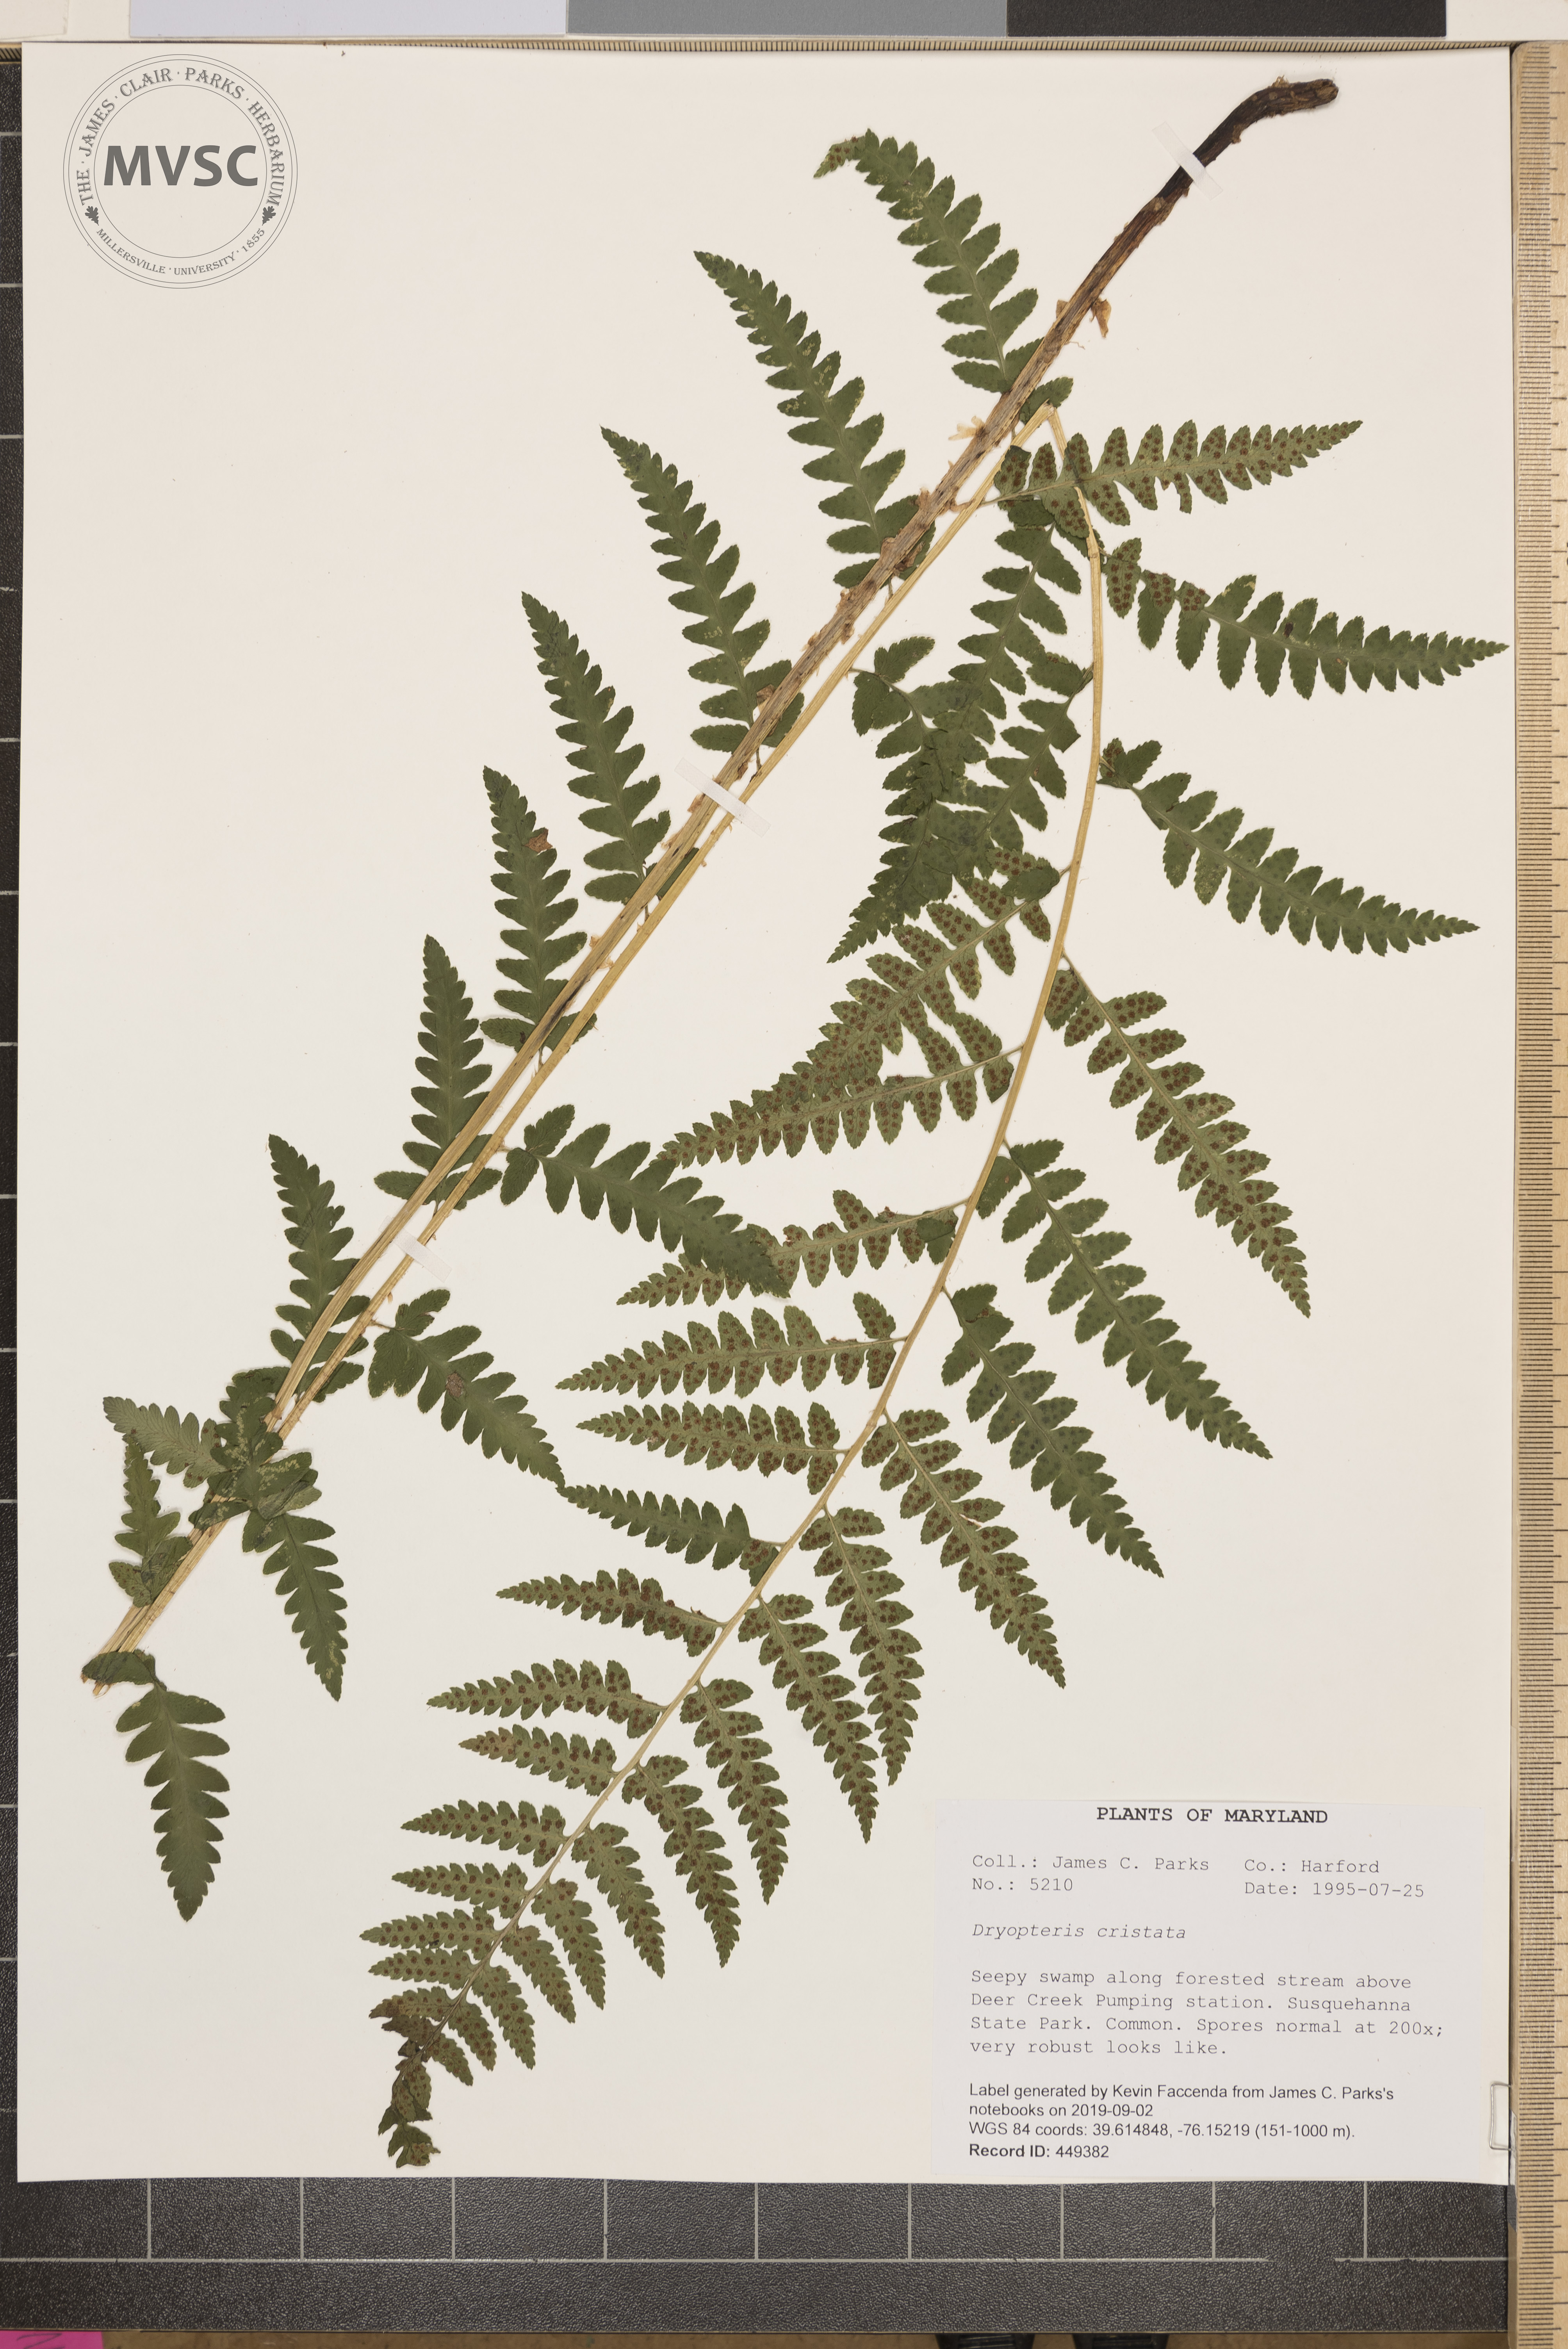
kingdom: Plantae
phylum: Tracheophyta
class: Polypodiopsida
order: Polypodiales
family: Dryopteridaceae
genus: Dryopteris
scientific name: Dryopteris cristata
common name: Crested wood fern
